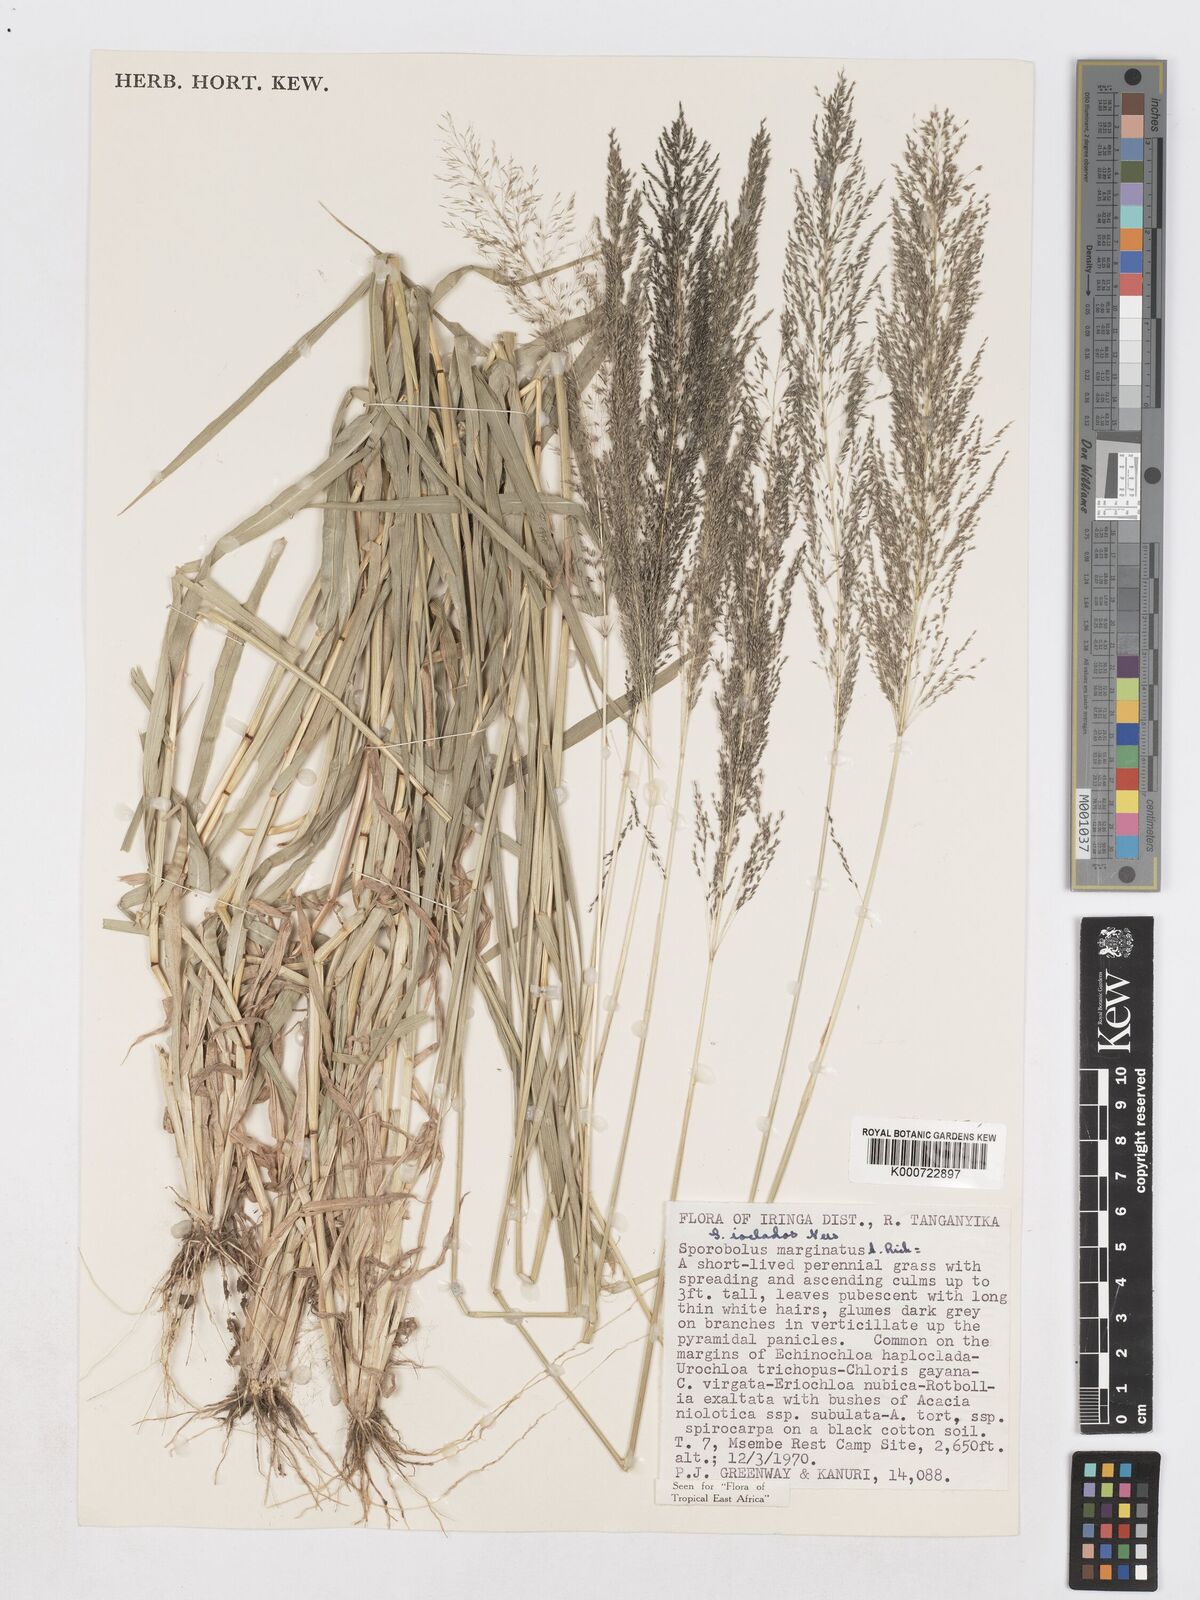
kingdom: Plantae
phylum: Tracheophyta
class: Liliopsida
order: Poales
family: Poaceae
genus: Sporobolus
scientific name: Sporobolus ioclados
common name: Pan dropseed
